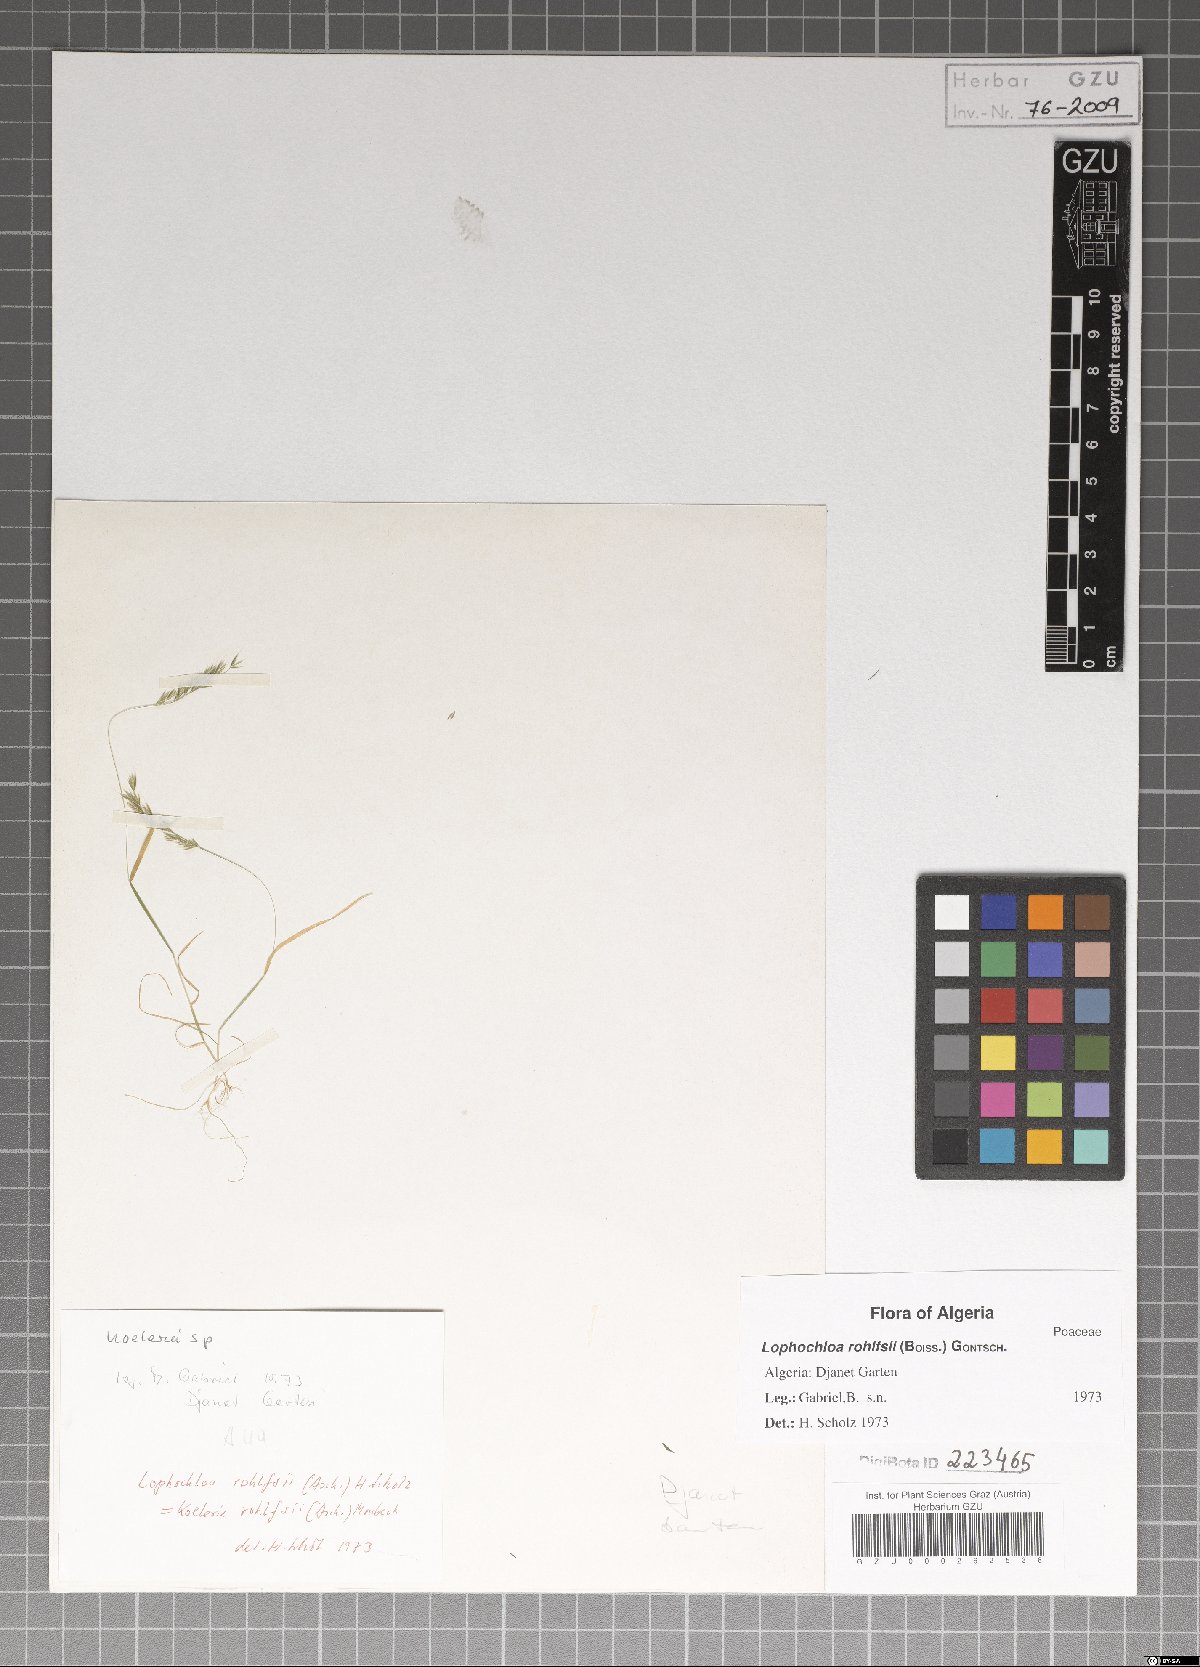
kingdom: Plantae
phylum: Tracheophyta
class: Liliopsida
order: Poales
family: Poaceae
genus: Rostraria
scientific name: Rostraria rohlfsii
